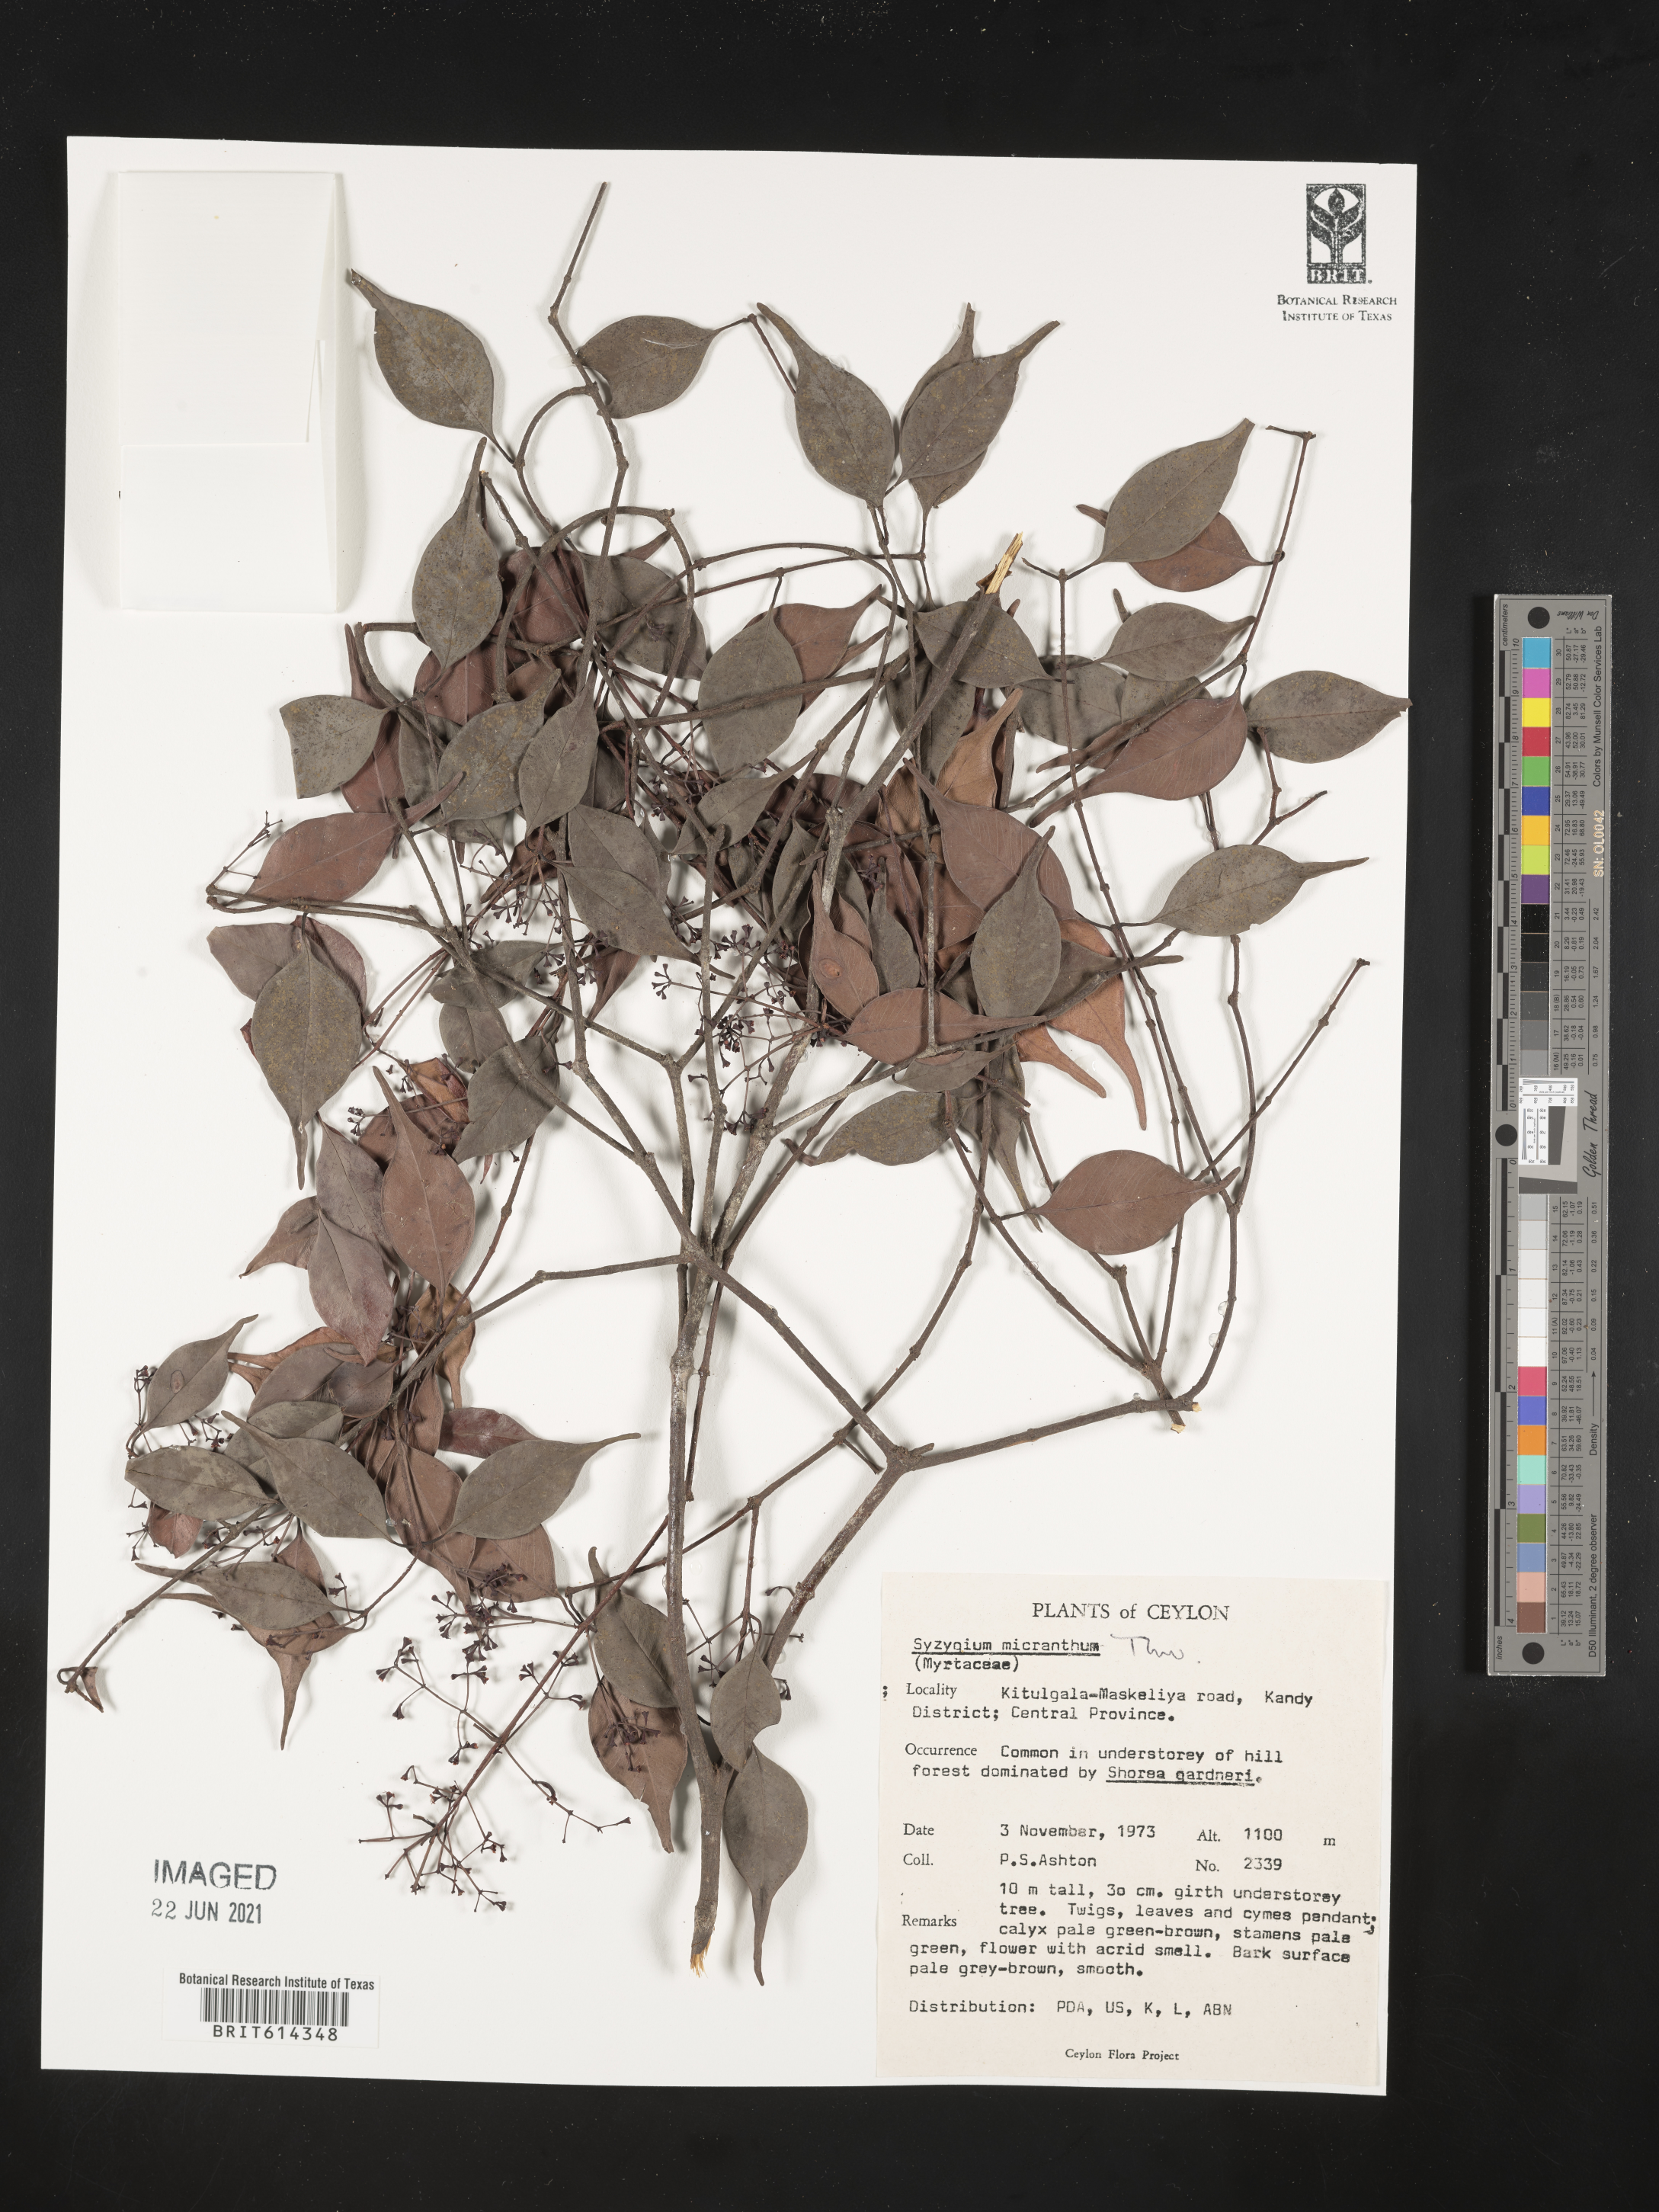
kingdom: Plantae
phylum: Tracheophyta
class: Magnoliopsida
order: Myrtales
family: Myrtaceae
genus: Syzygium
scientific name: Syzygium micranthum
